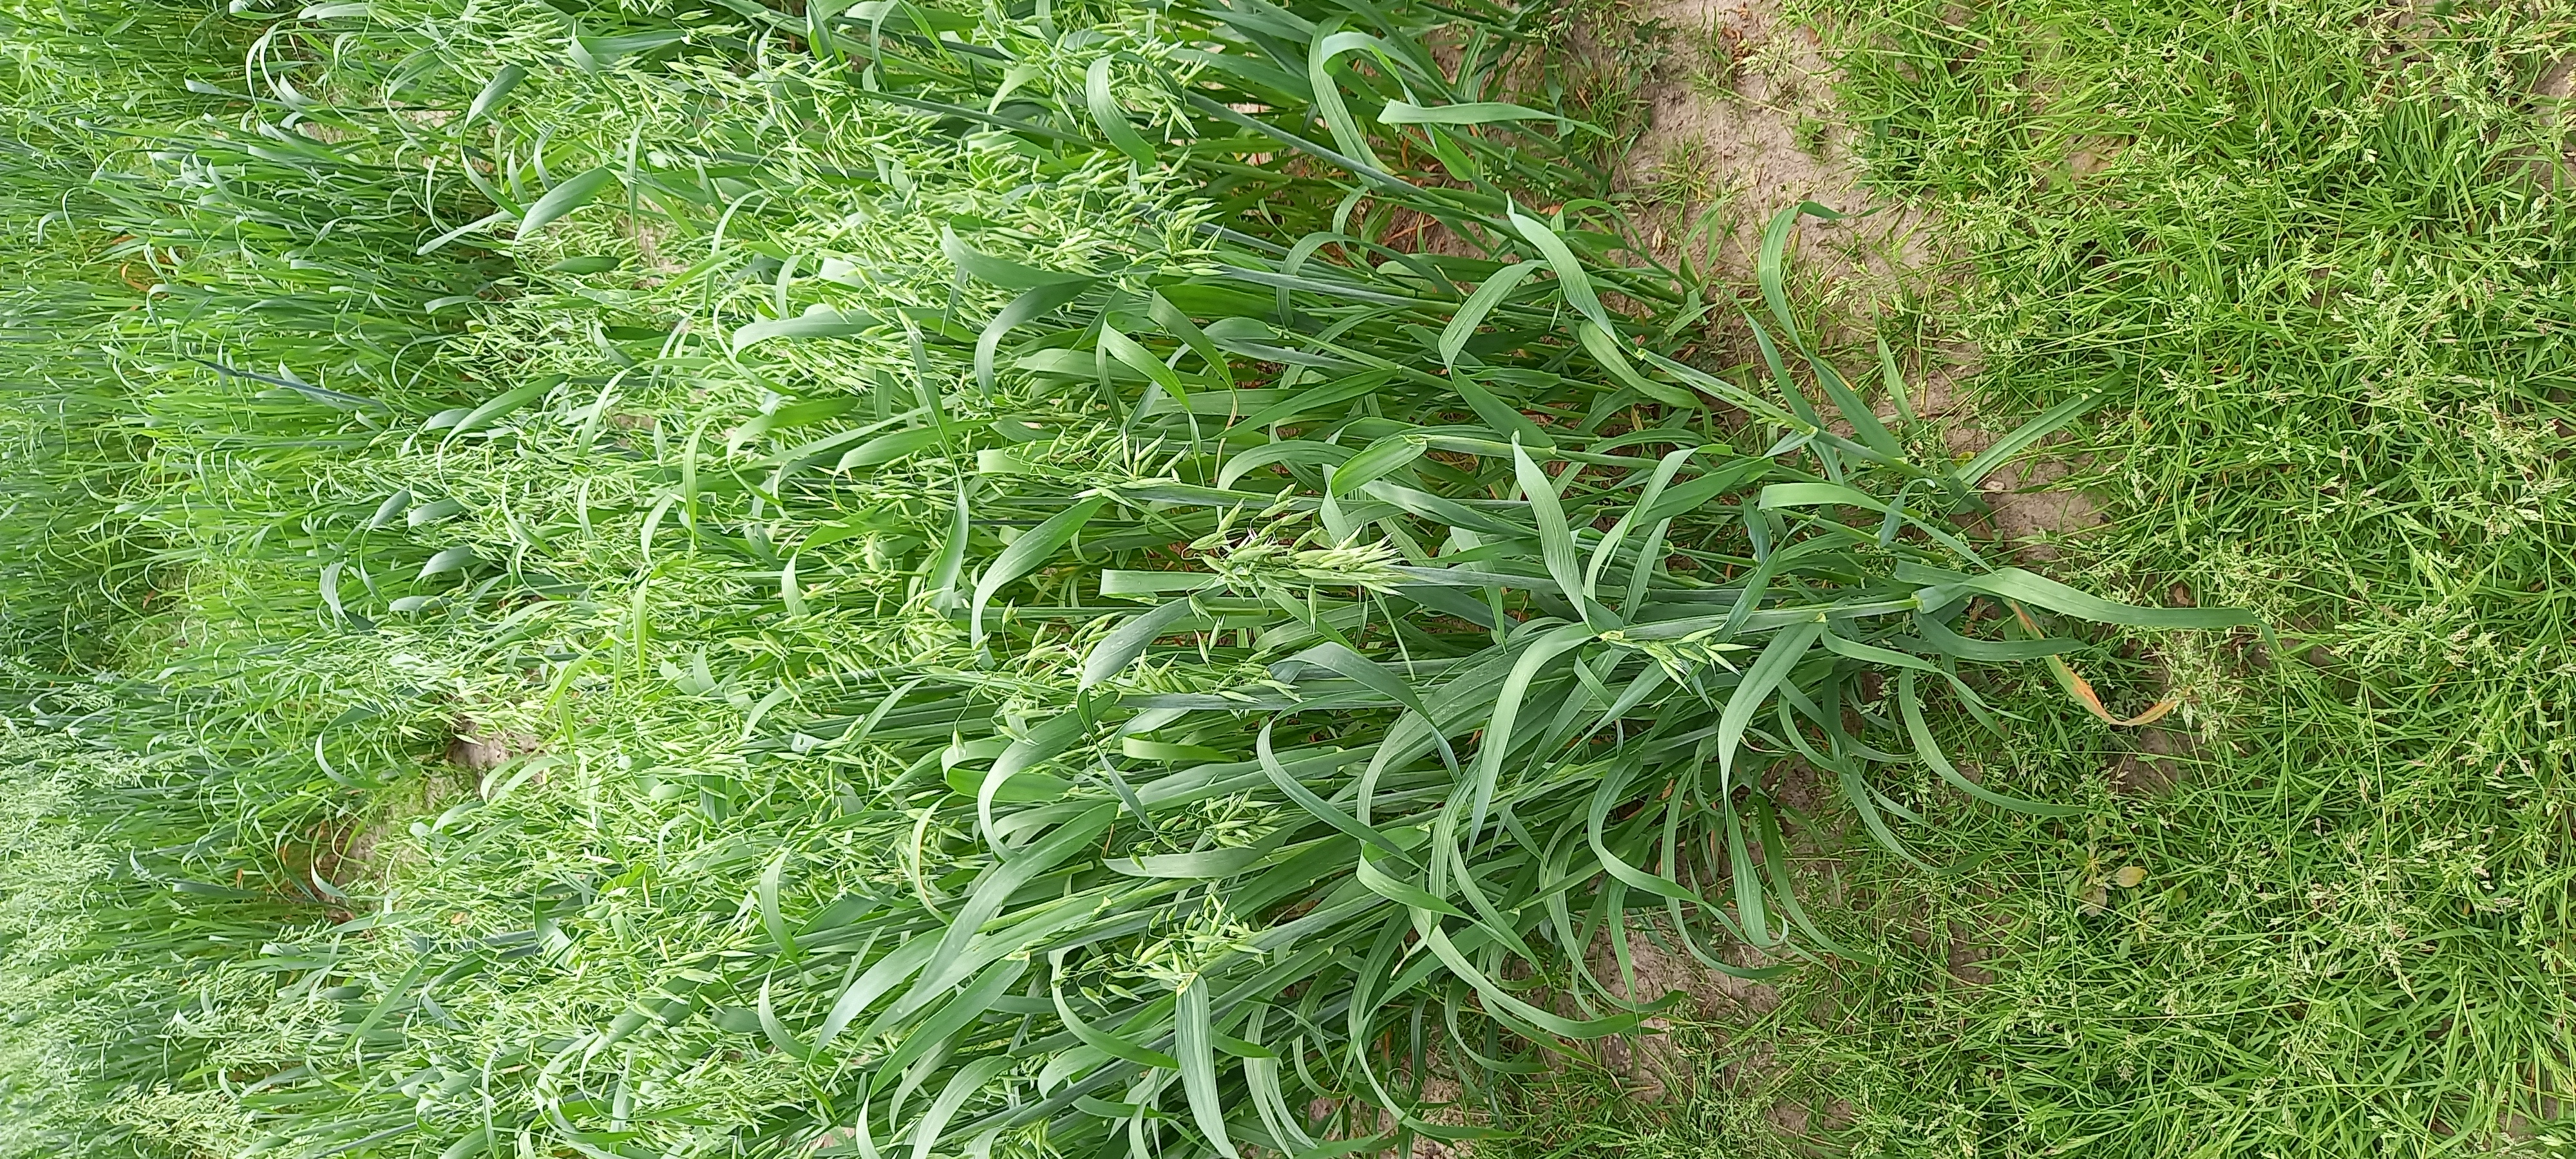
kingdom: Plantae
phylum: Tracheophyta
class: Liliopsida
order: Poales
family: Poaceae
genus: Avena
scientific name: Avena sativa
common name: Oat
